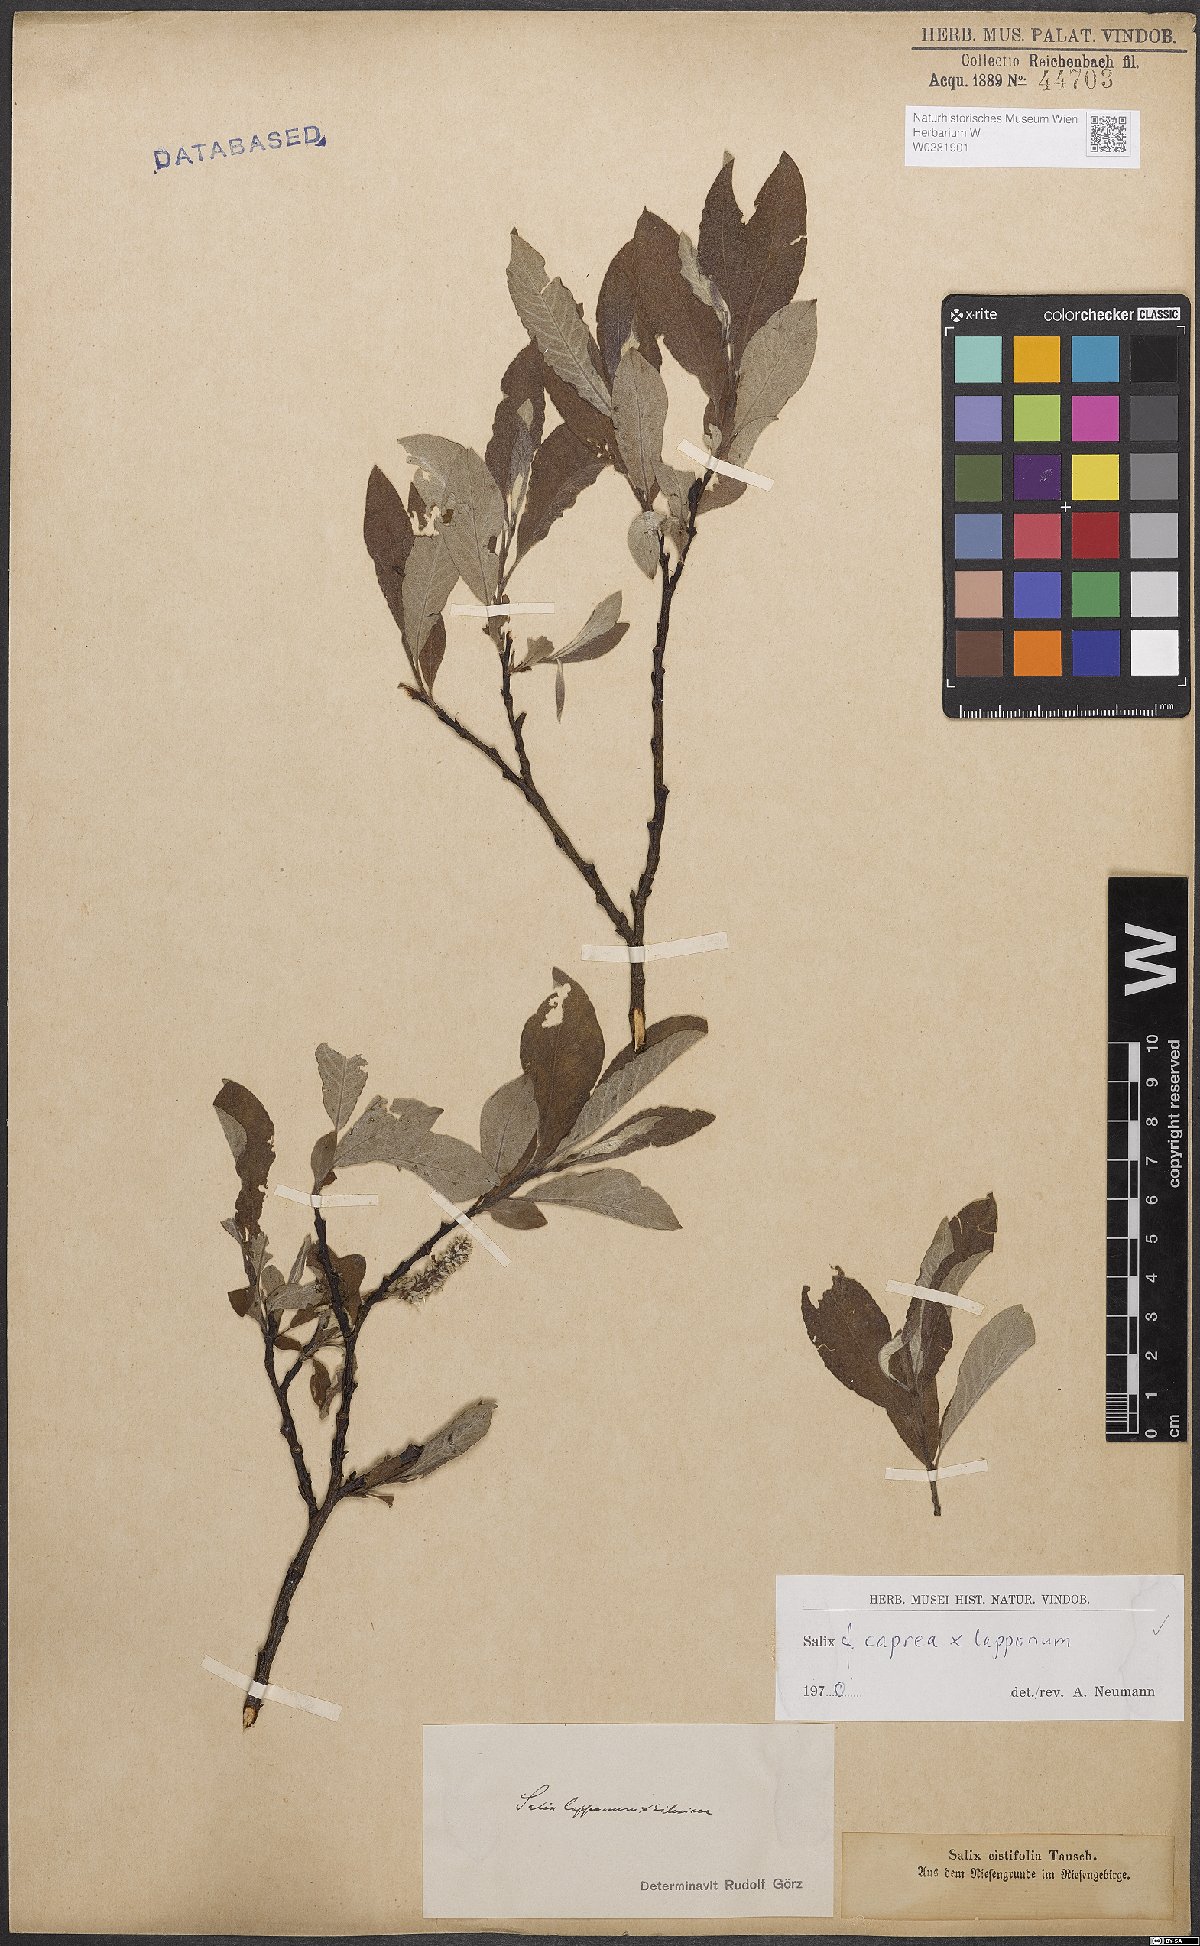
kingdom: Plantae
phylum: Tracheophyta
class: Magnoliopsida
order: Malpighiales
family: Salicaceae
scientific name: Salicaceae
